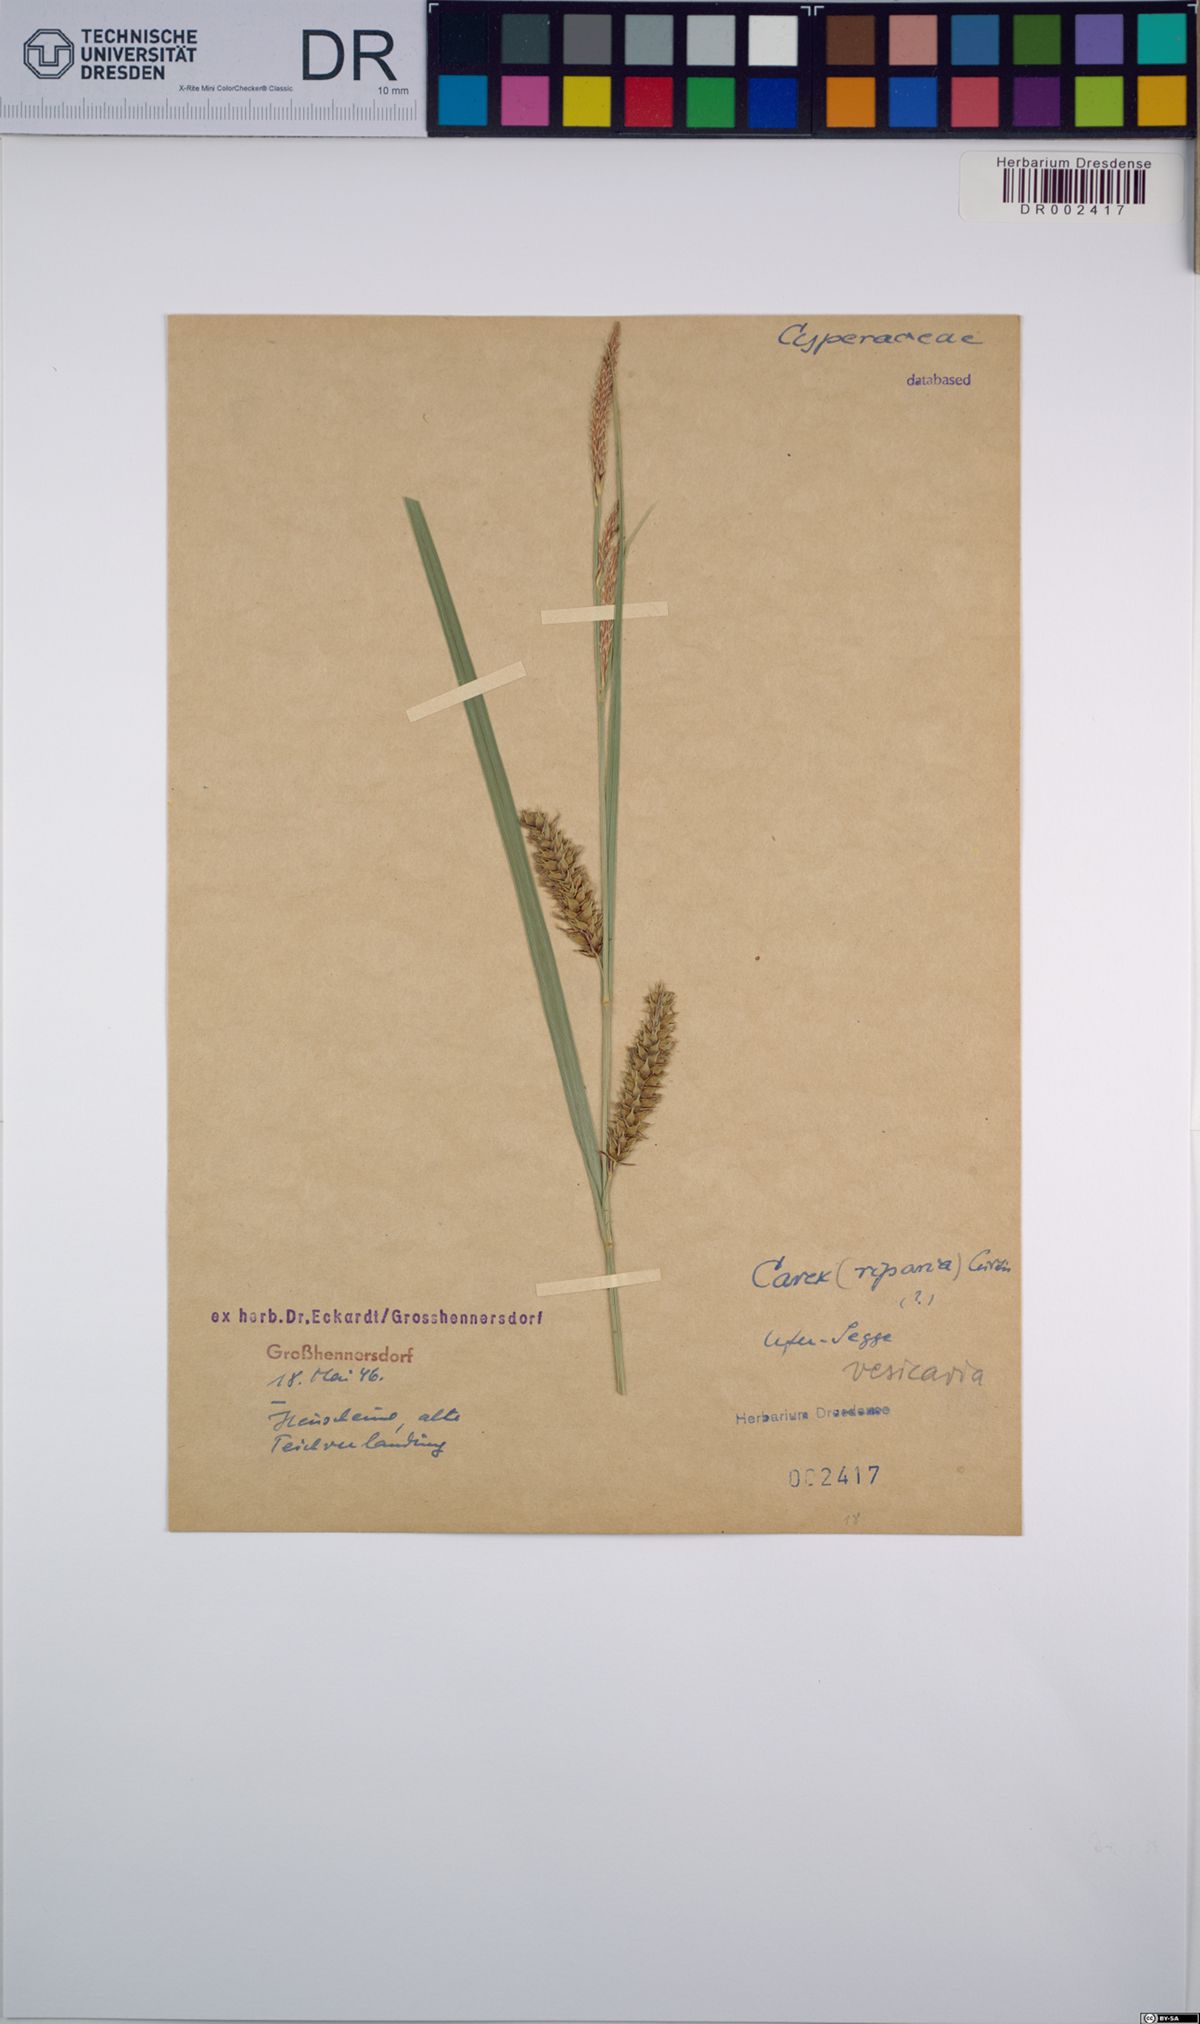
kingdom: Plantae
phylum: Tracheophyta
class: Liliopsida
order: Poales
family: Cyperaceae
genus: Carex
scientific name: Carex vesicaria
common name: Bladder-sedge
